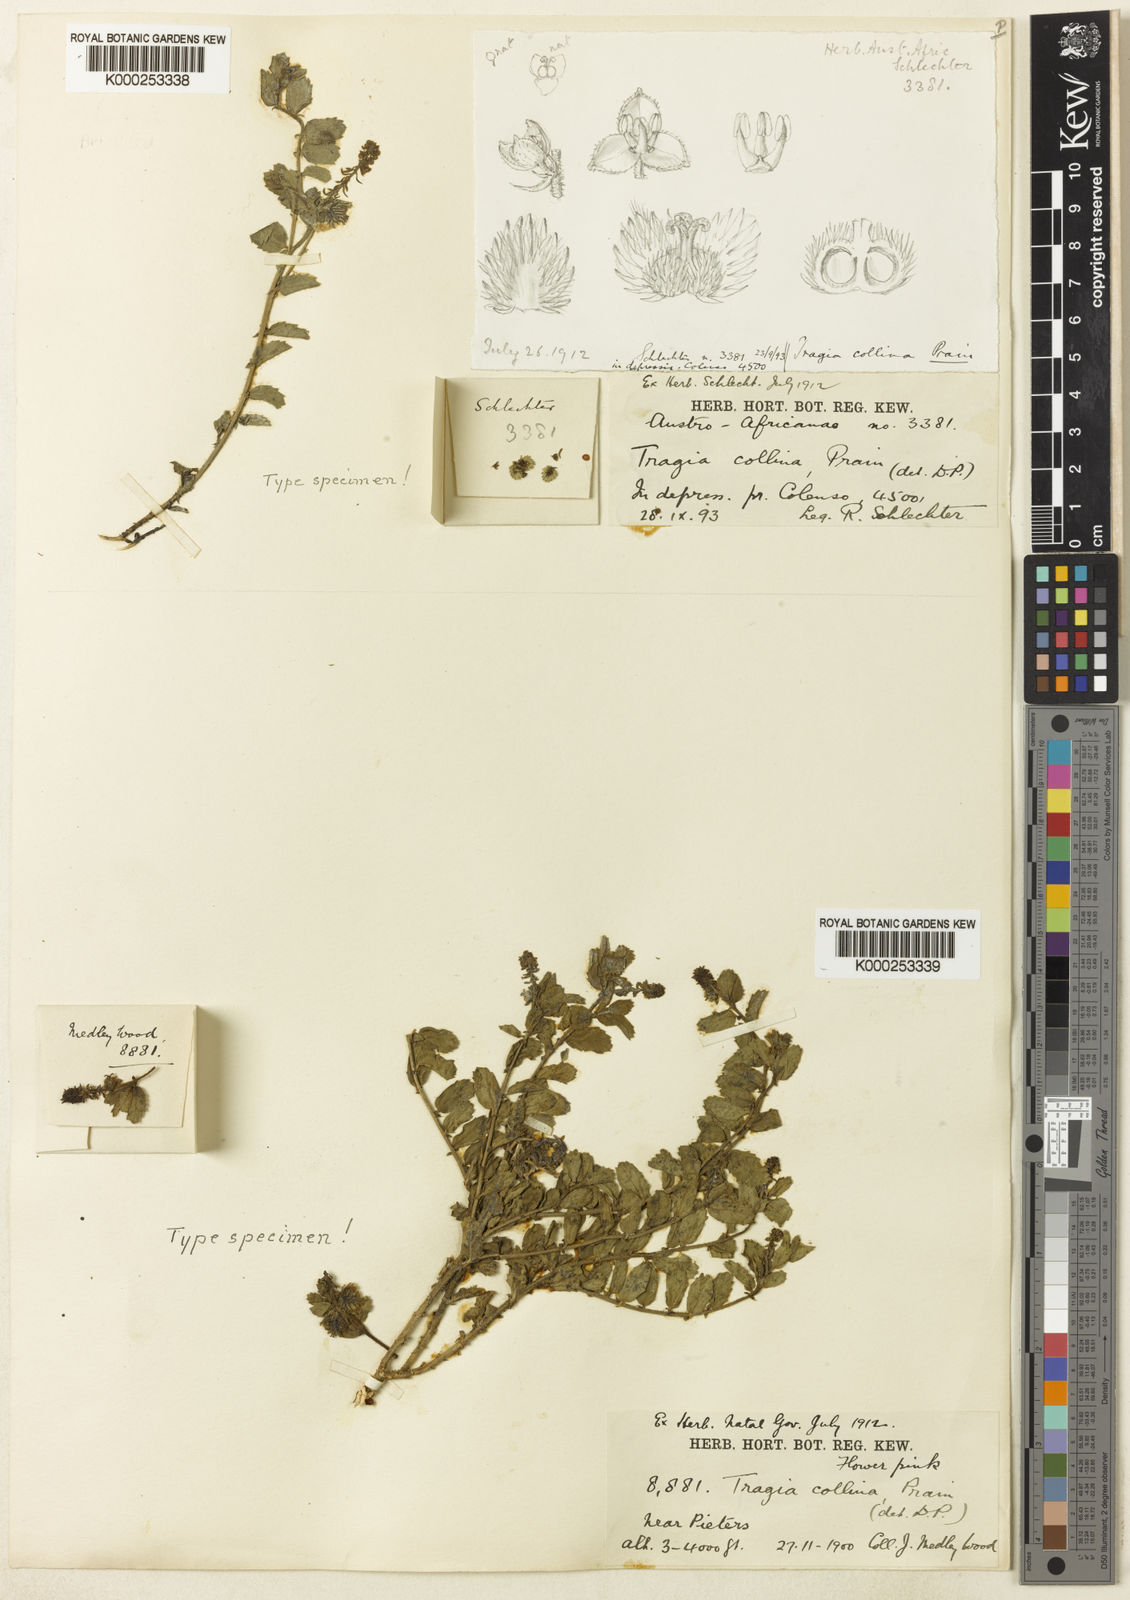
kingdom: Plantae
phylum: Tracheophyta
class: Magnoliopsida
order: Malpighiales
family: Euphorbiaceae
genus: Tragia
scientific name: Tragia collina
